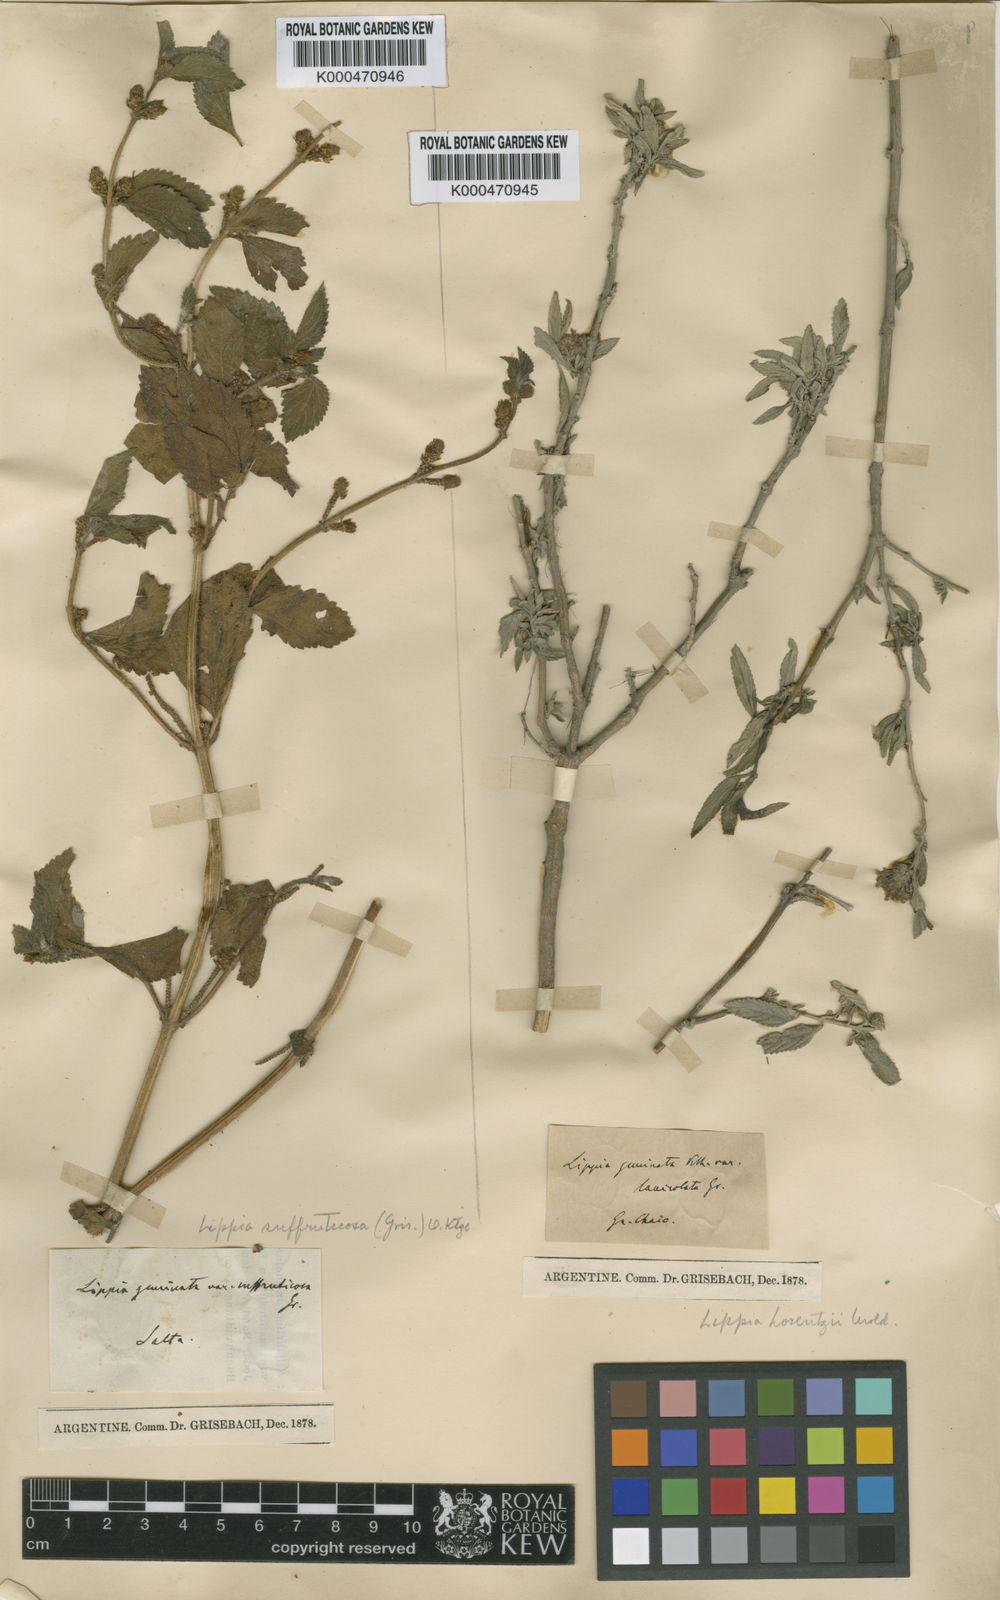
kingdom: Plantae
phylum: Tracheophyta
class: Magnoliopsida
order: Lamiales
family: Verbenaceae
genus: Lippia
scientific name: Lippia alba
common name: Bushy matgrass
